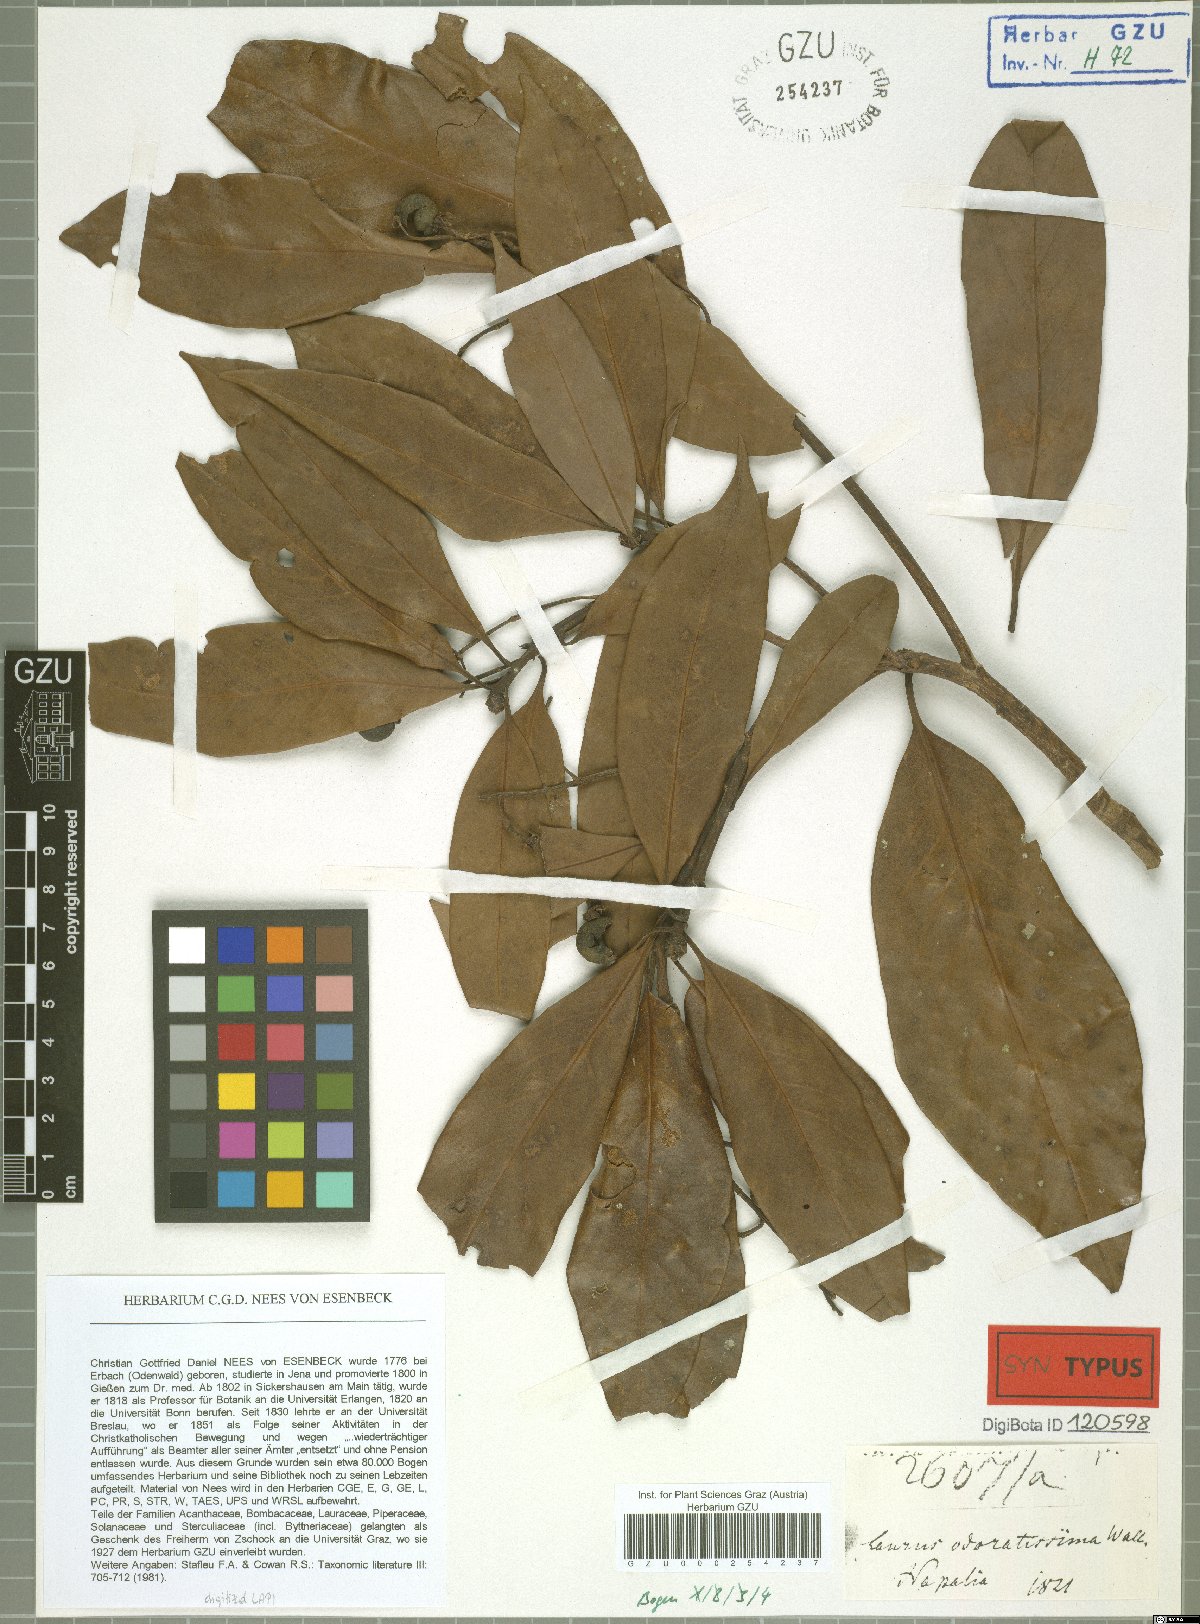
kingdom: Plantae
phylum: Tracheophyta
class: Magnoliopsida
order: Laurales
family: Lauraceae
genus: Machilus
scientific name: Machilus odoratissimus
